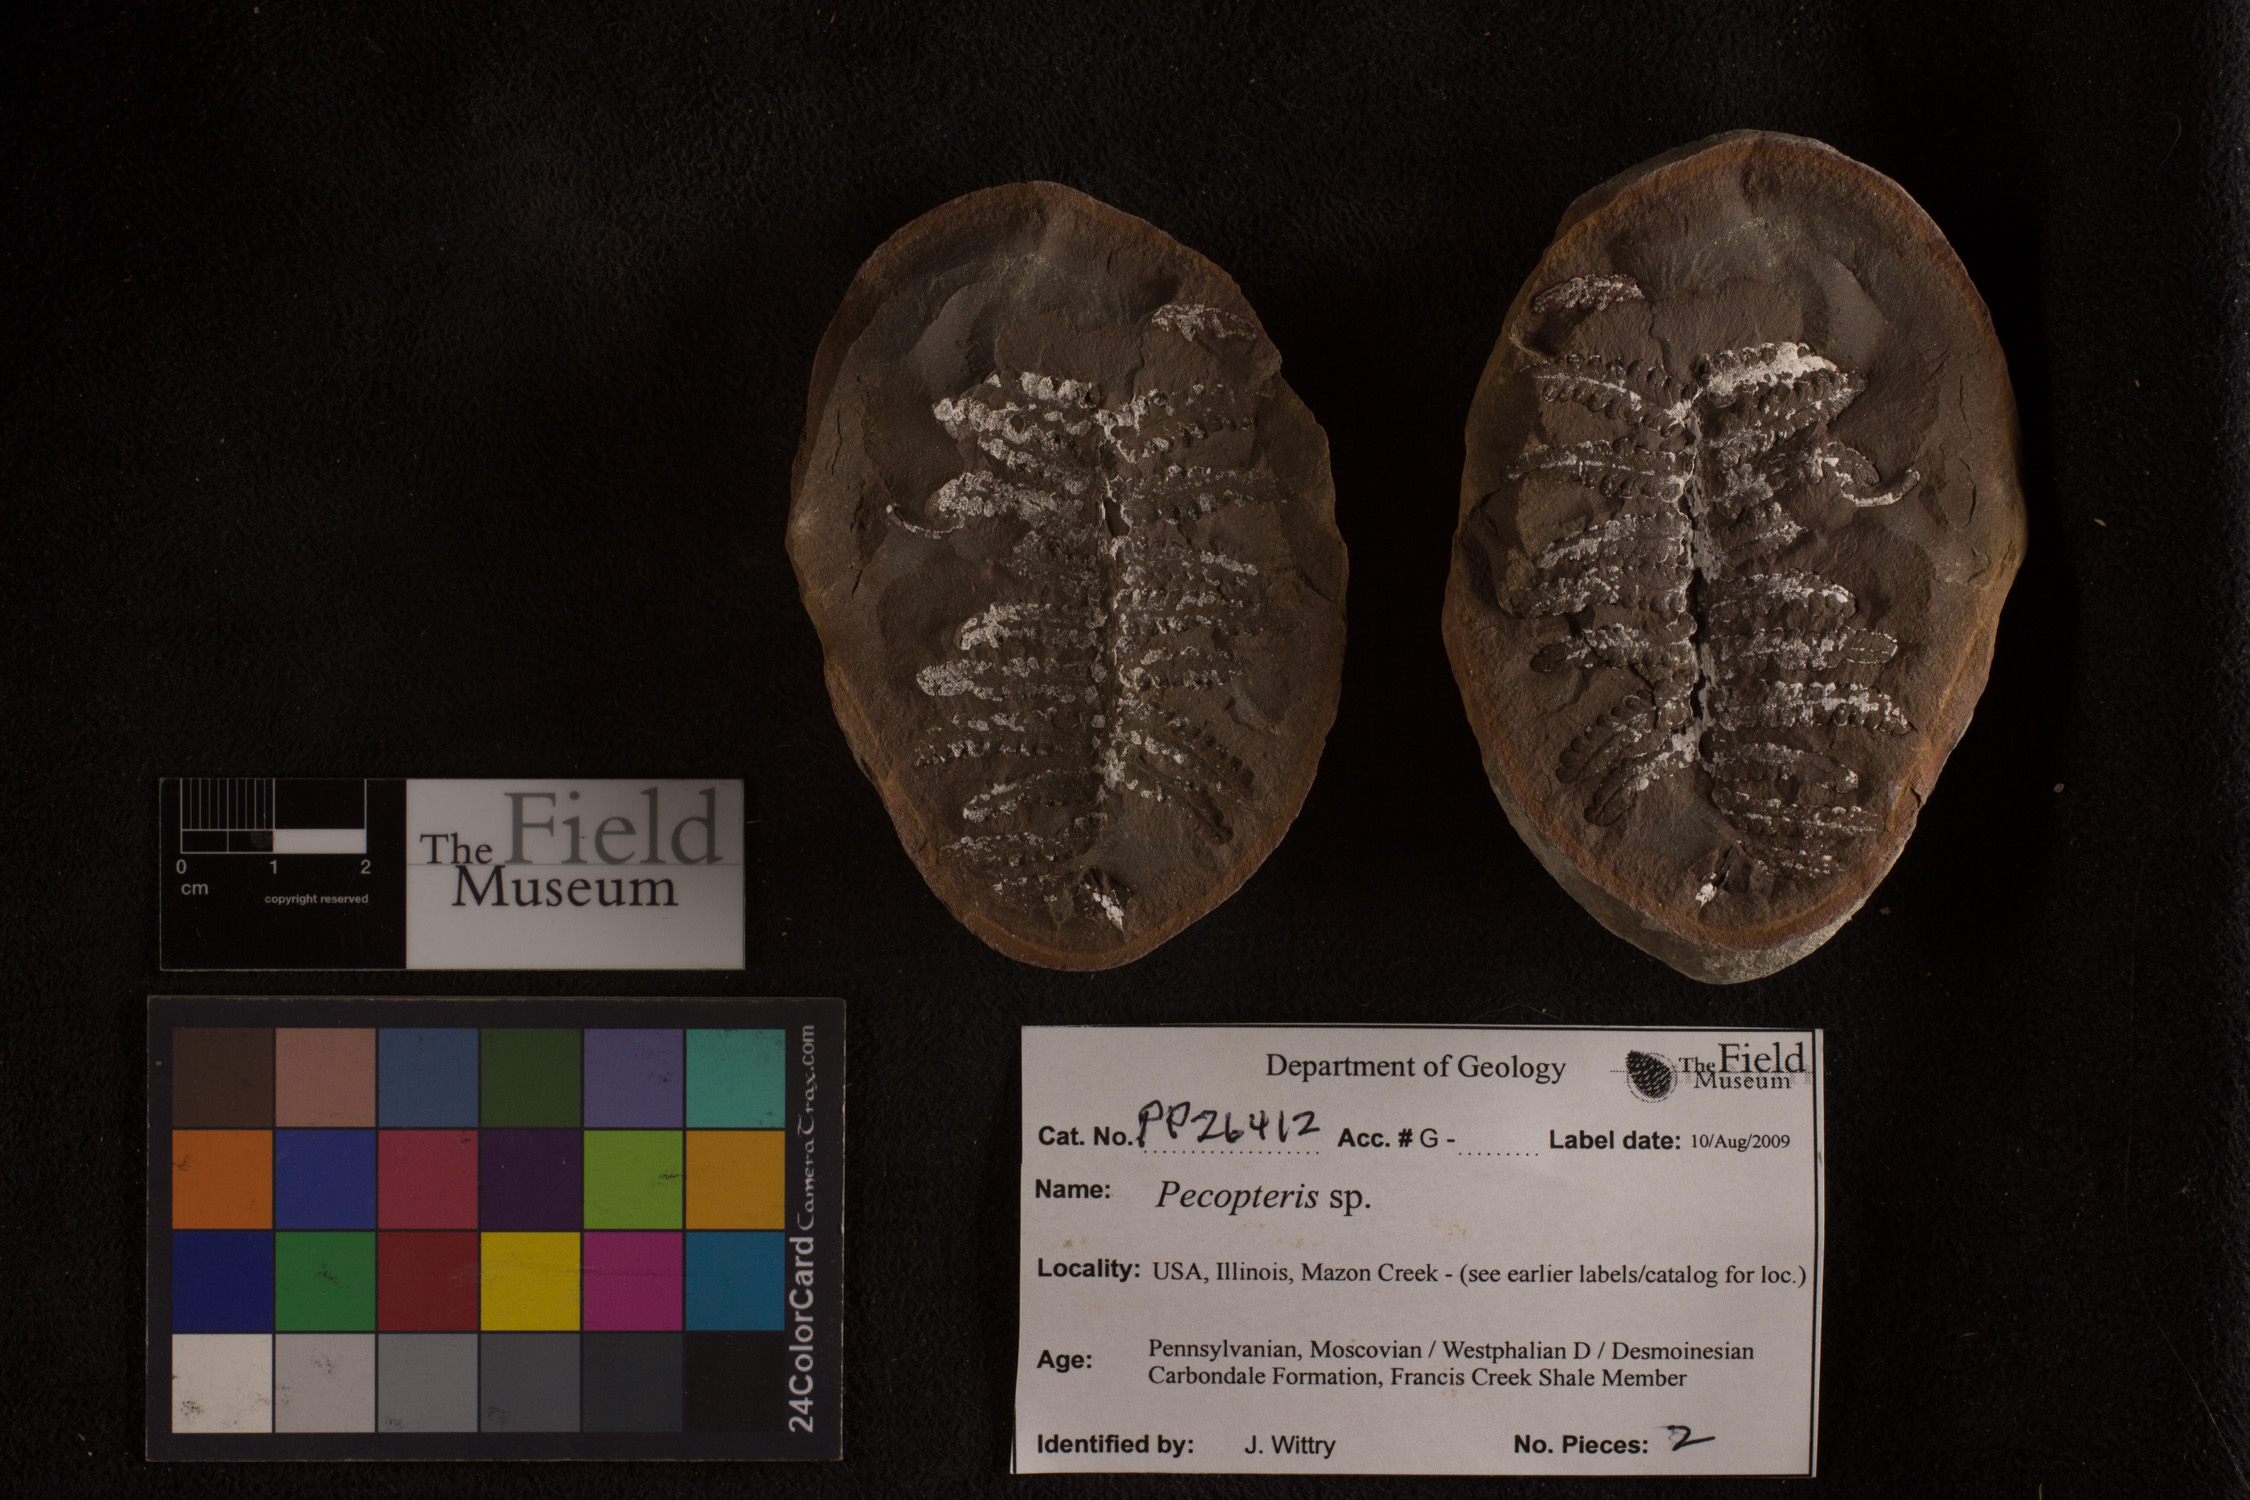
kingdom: Plantae
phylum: Tracheophyta
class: Polypodiopsida
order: Marattiales
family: Asterothecaceae
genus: Pecopteris
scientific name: Pecopteris
